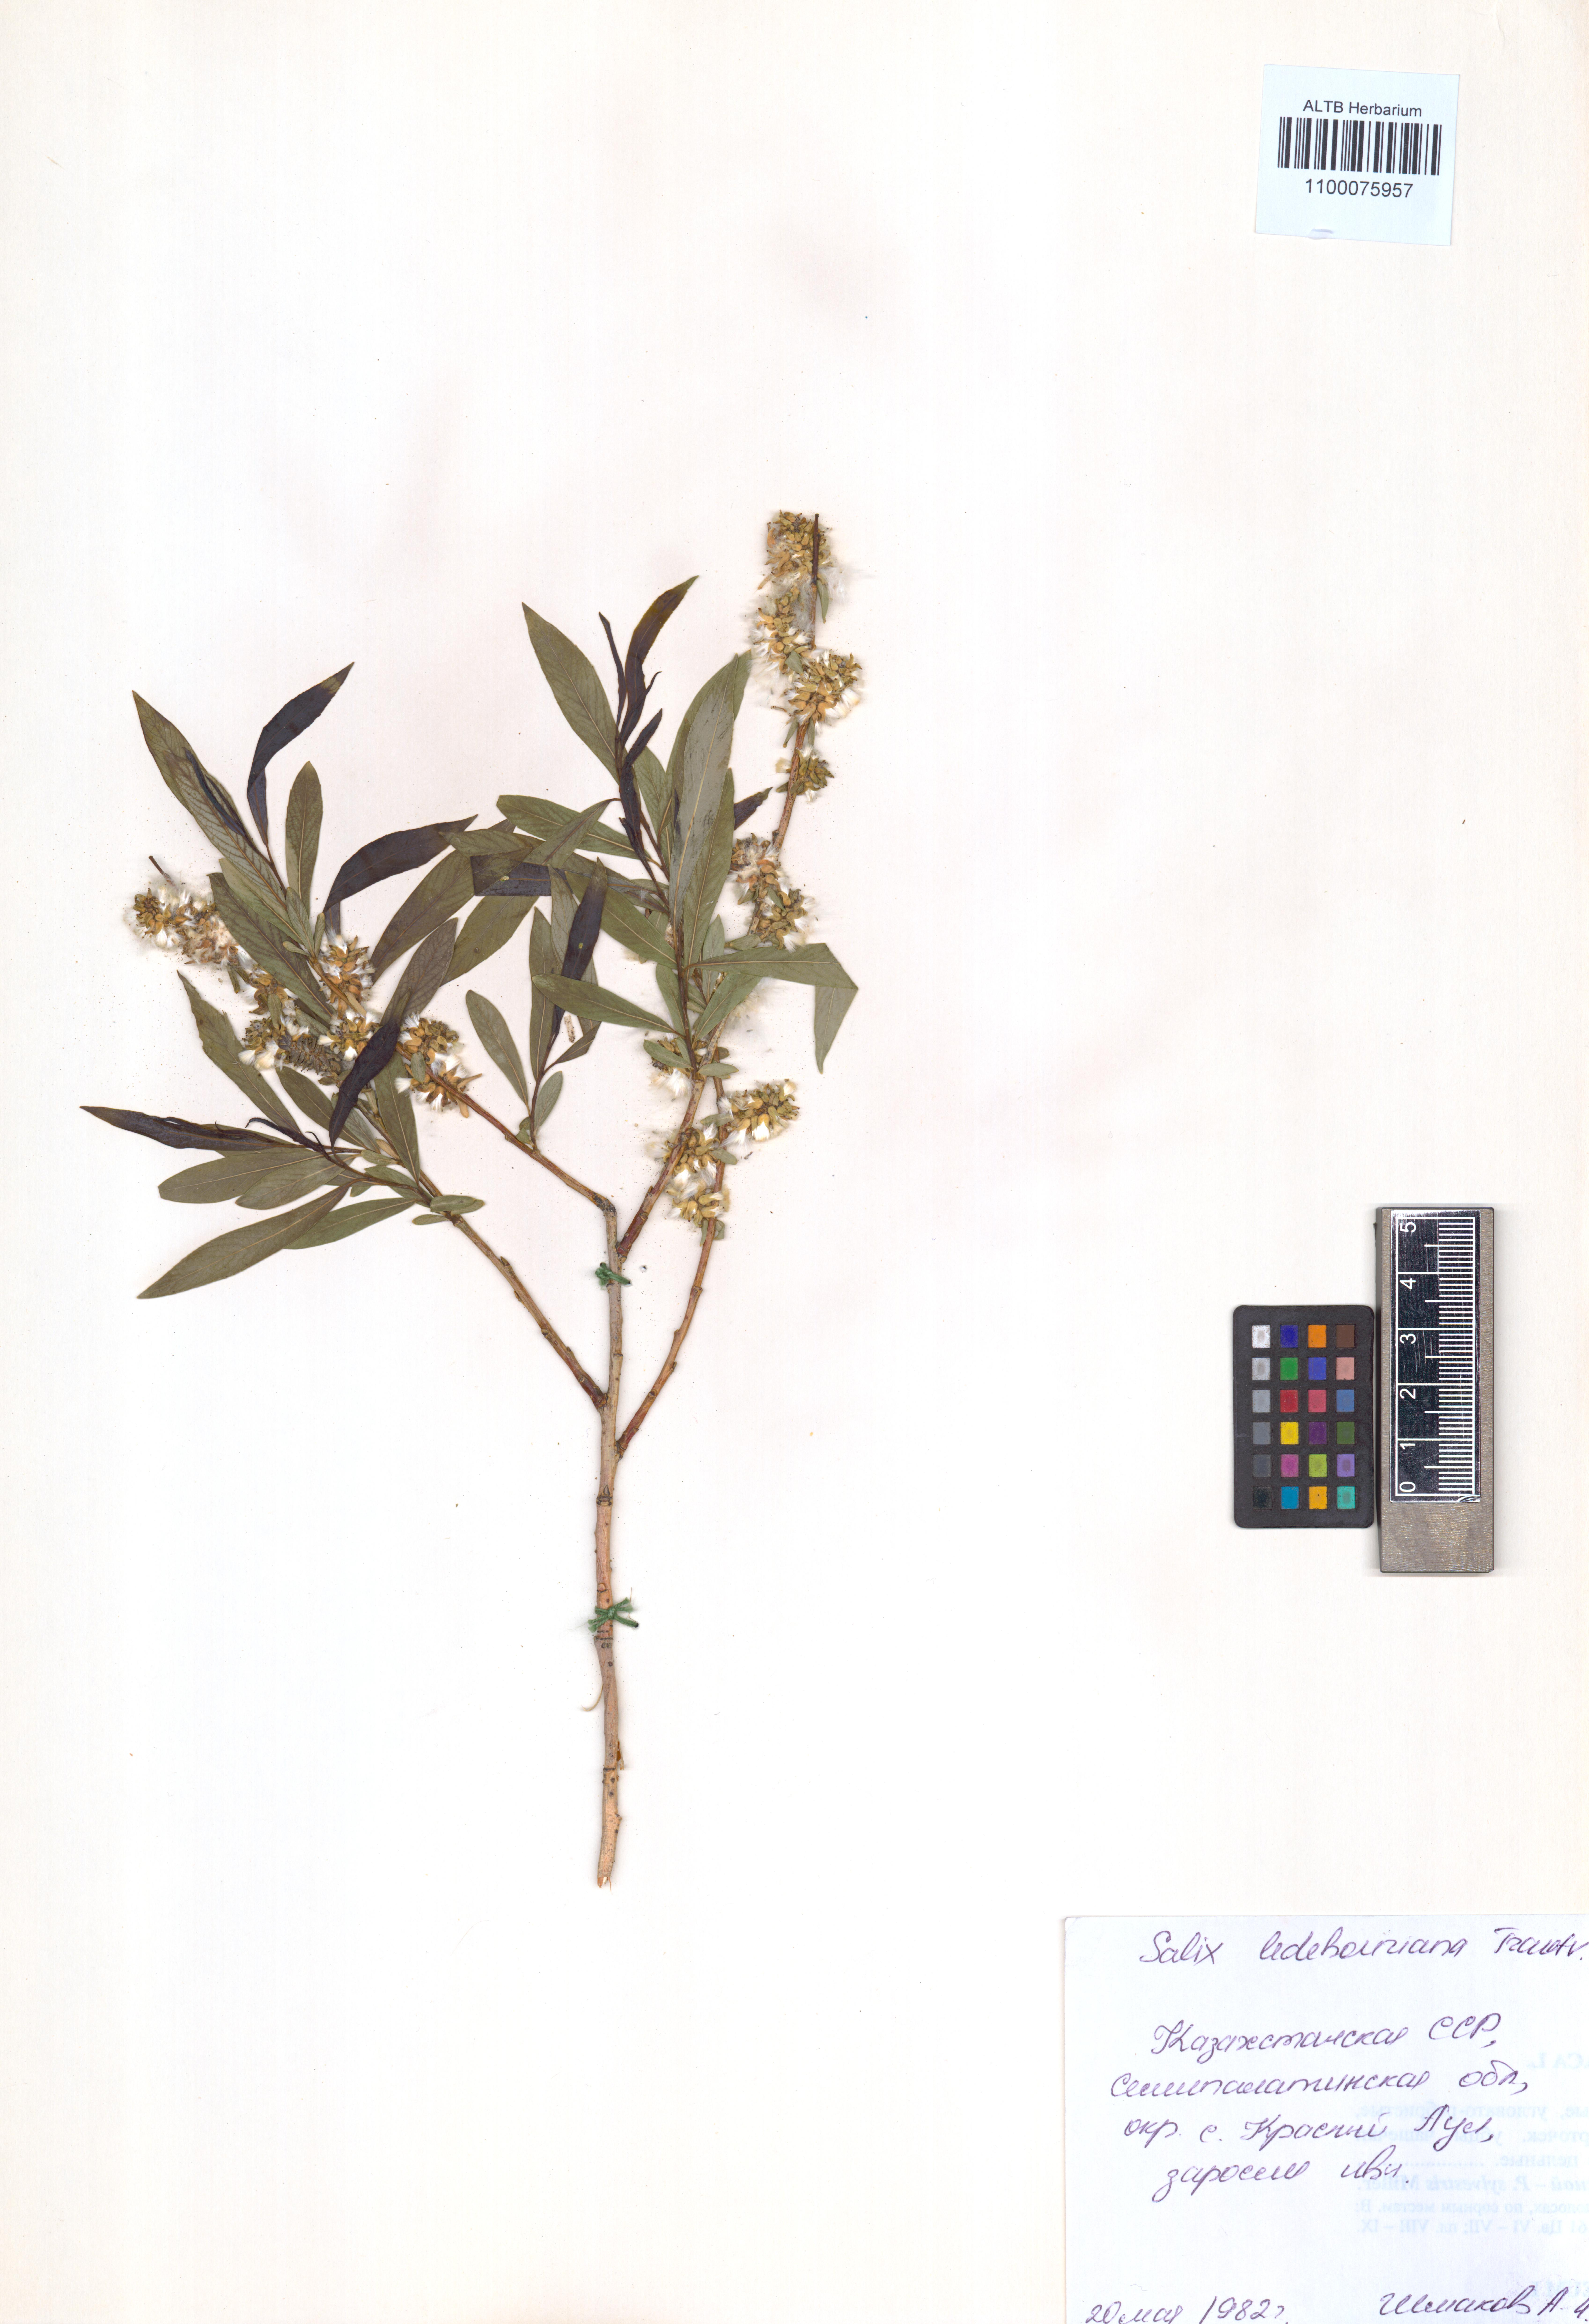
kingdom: Plantae
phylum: Tracheophyta
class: Magnoliopsida
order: Malpighiales
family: Salicaceae
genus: Salix
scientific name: Salix ledebouriana
